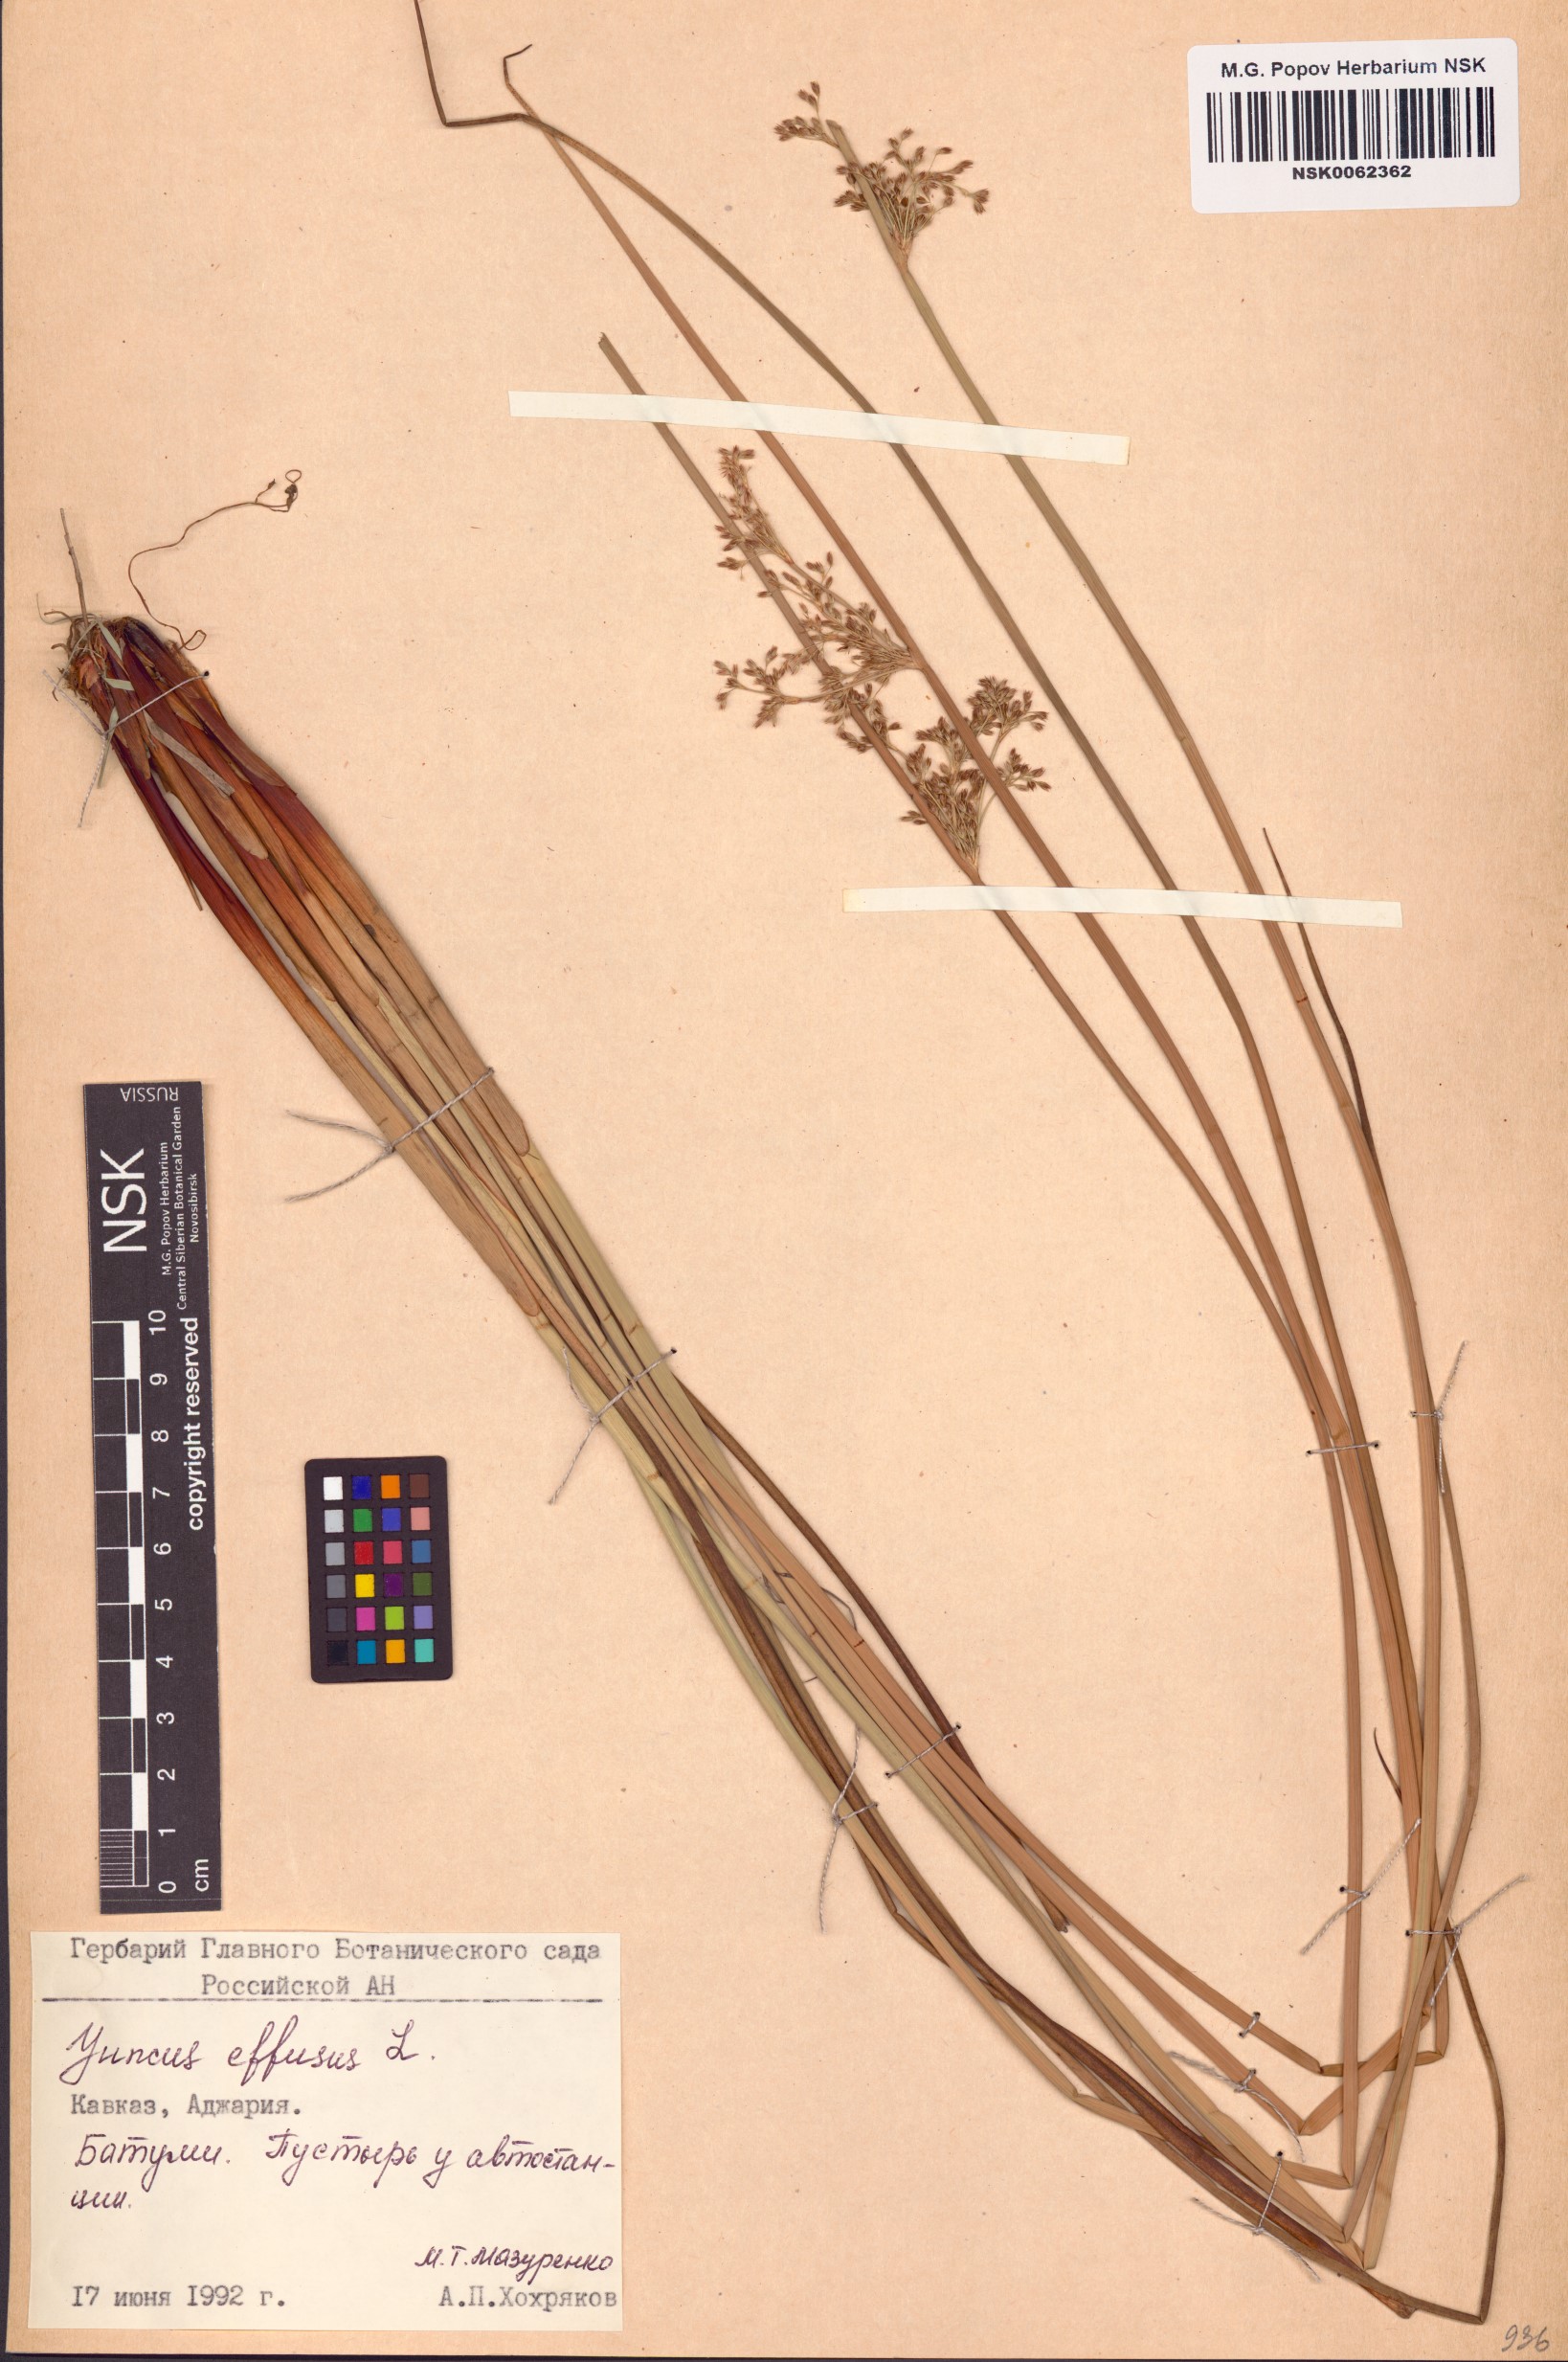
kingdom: Plantae
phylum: Tracheophyta
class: Liliopsida
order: Poales
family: Juncaceae
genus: Juncus
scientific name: Juncus effusus
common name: Soft rush
